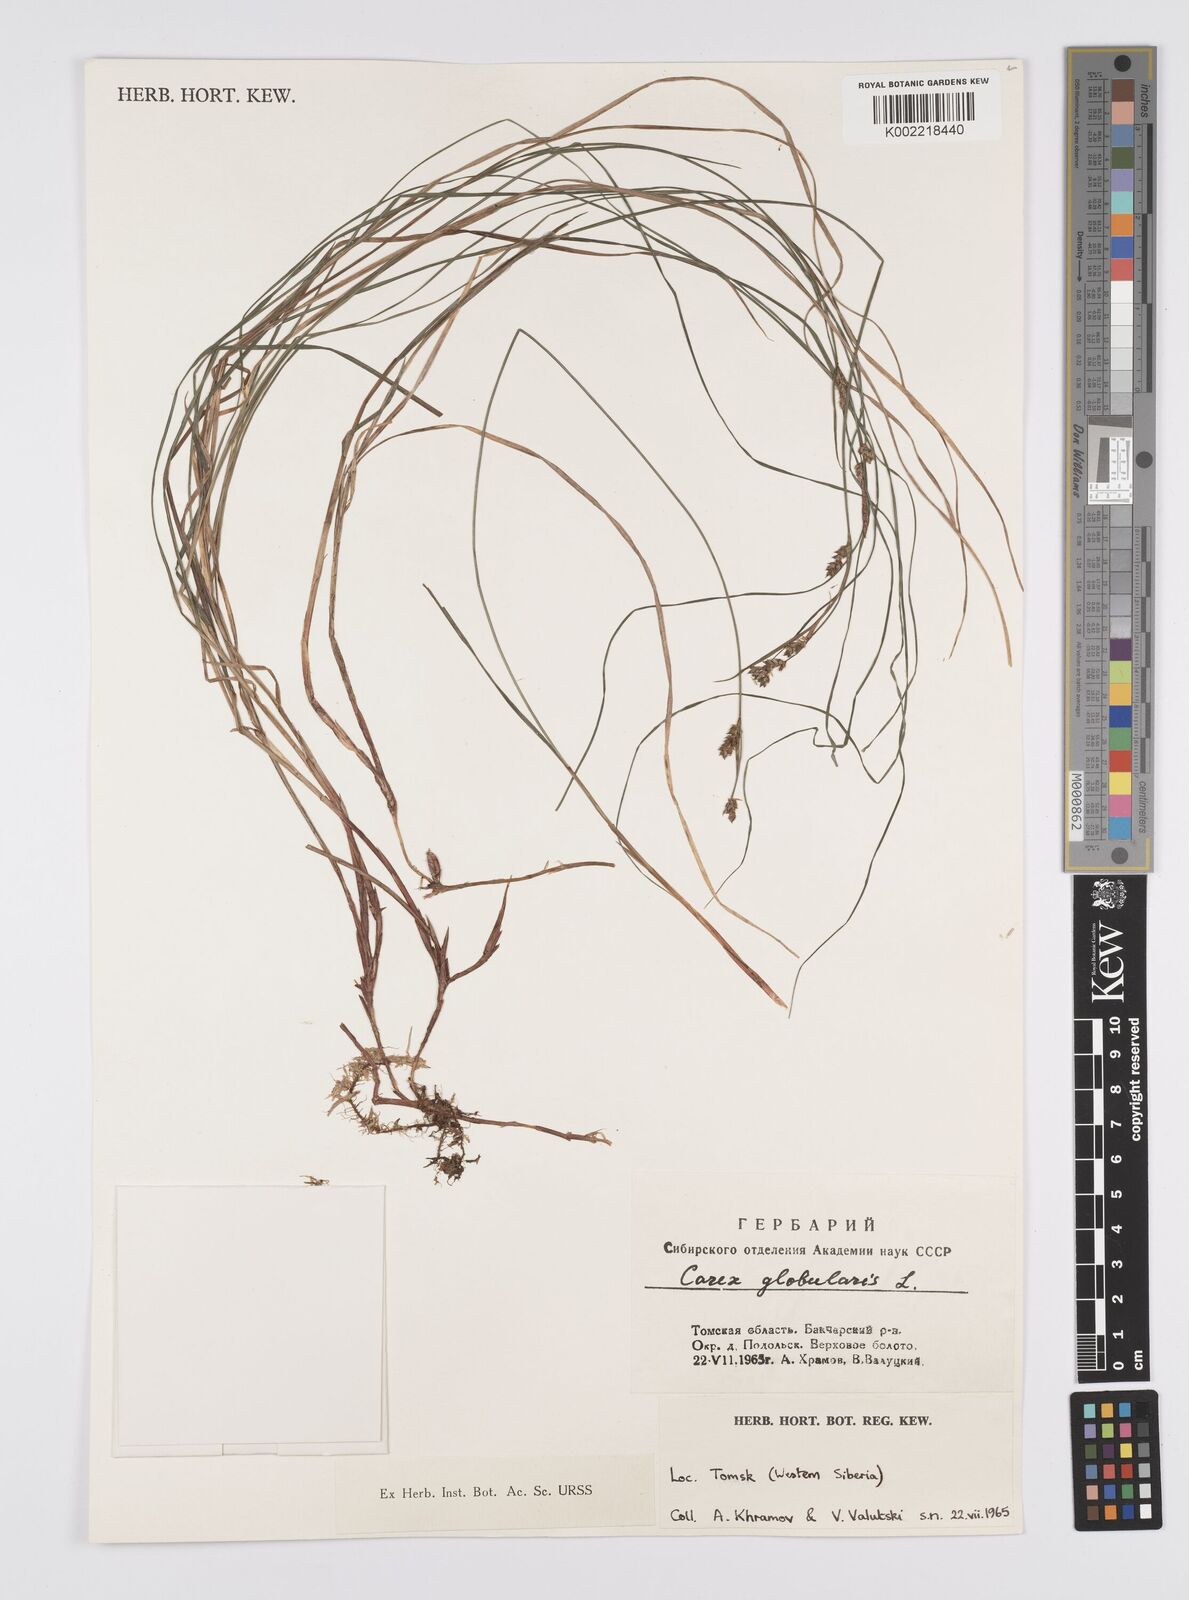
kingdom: Plantae
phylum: Tracheophyta
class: Liliopsida
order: Poales
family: Cyperaceae
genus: Carex
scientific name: Carex globularis
